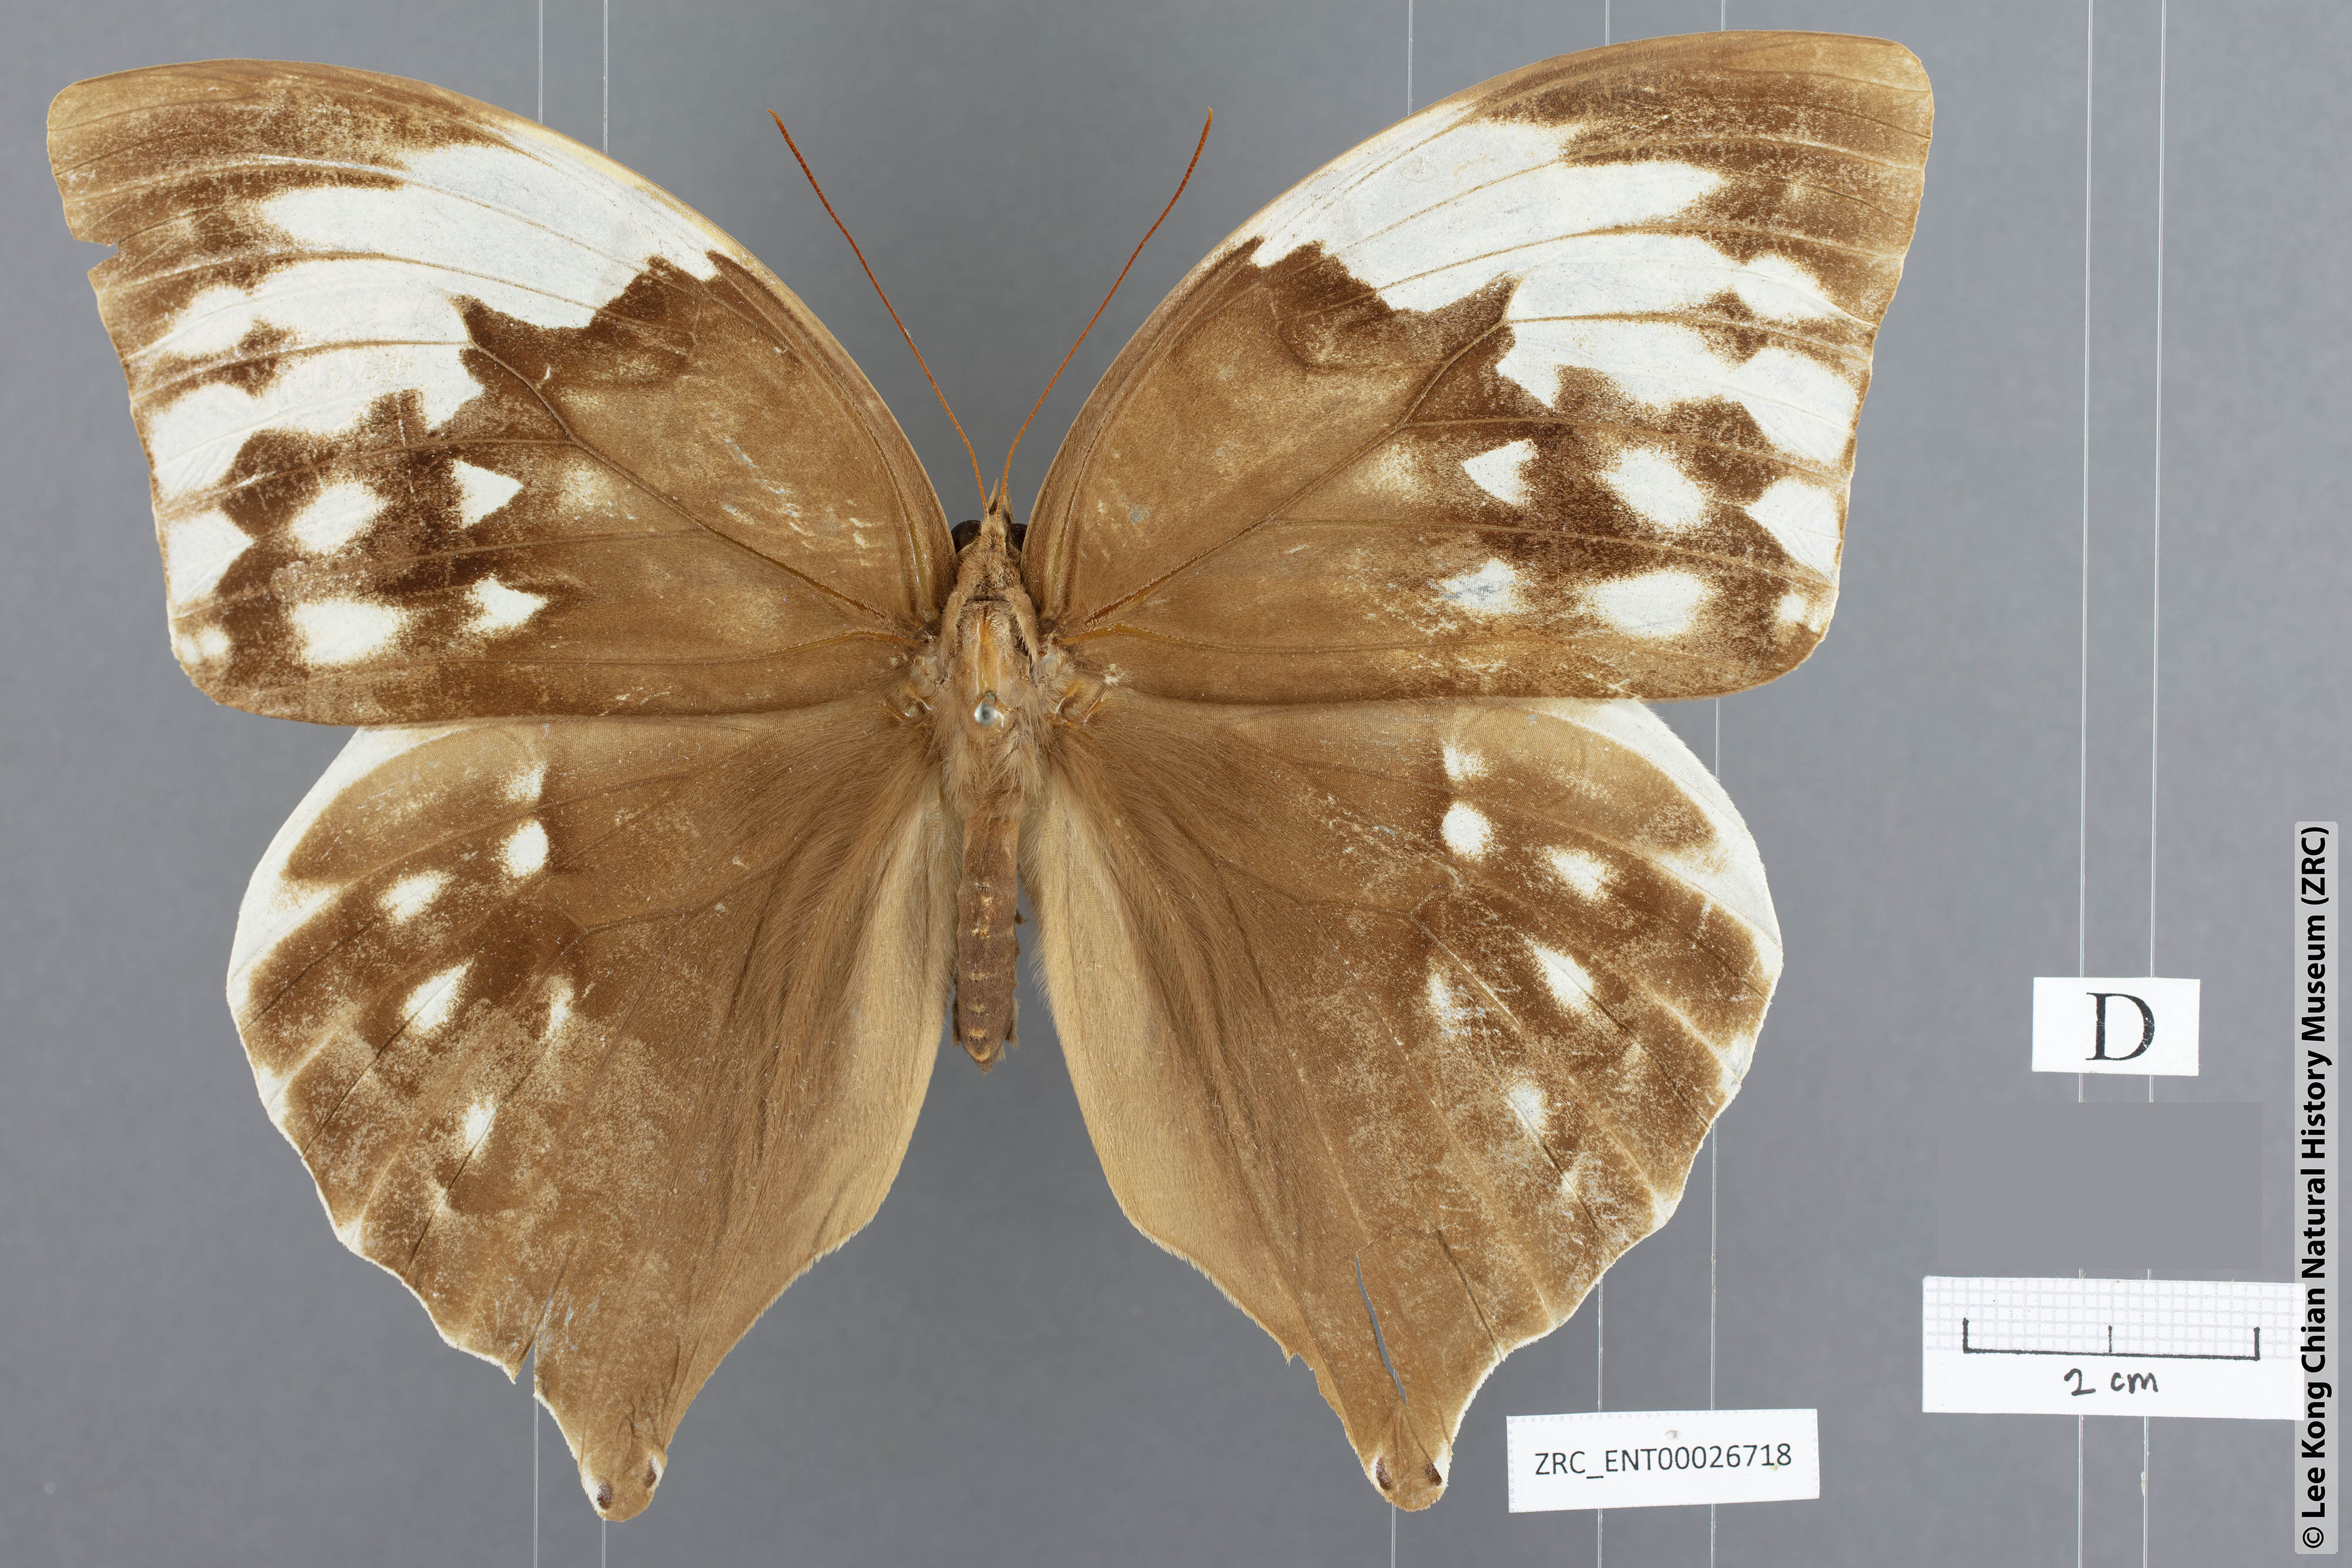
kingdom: Animalia
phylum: Arthropoda
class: Insecta
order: Lepidoptera
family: Nymphalidae
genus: Zeuxidia
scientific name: Zeuxidia aurelia
